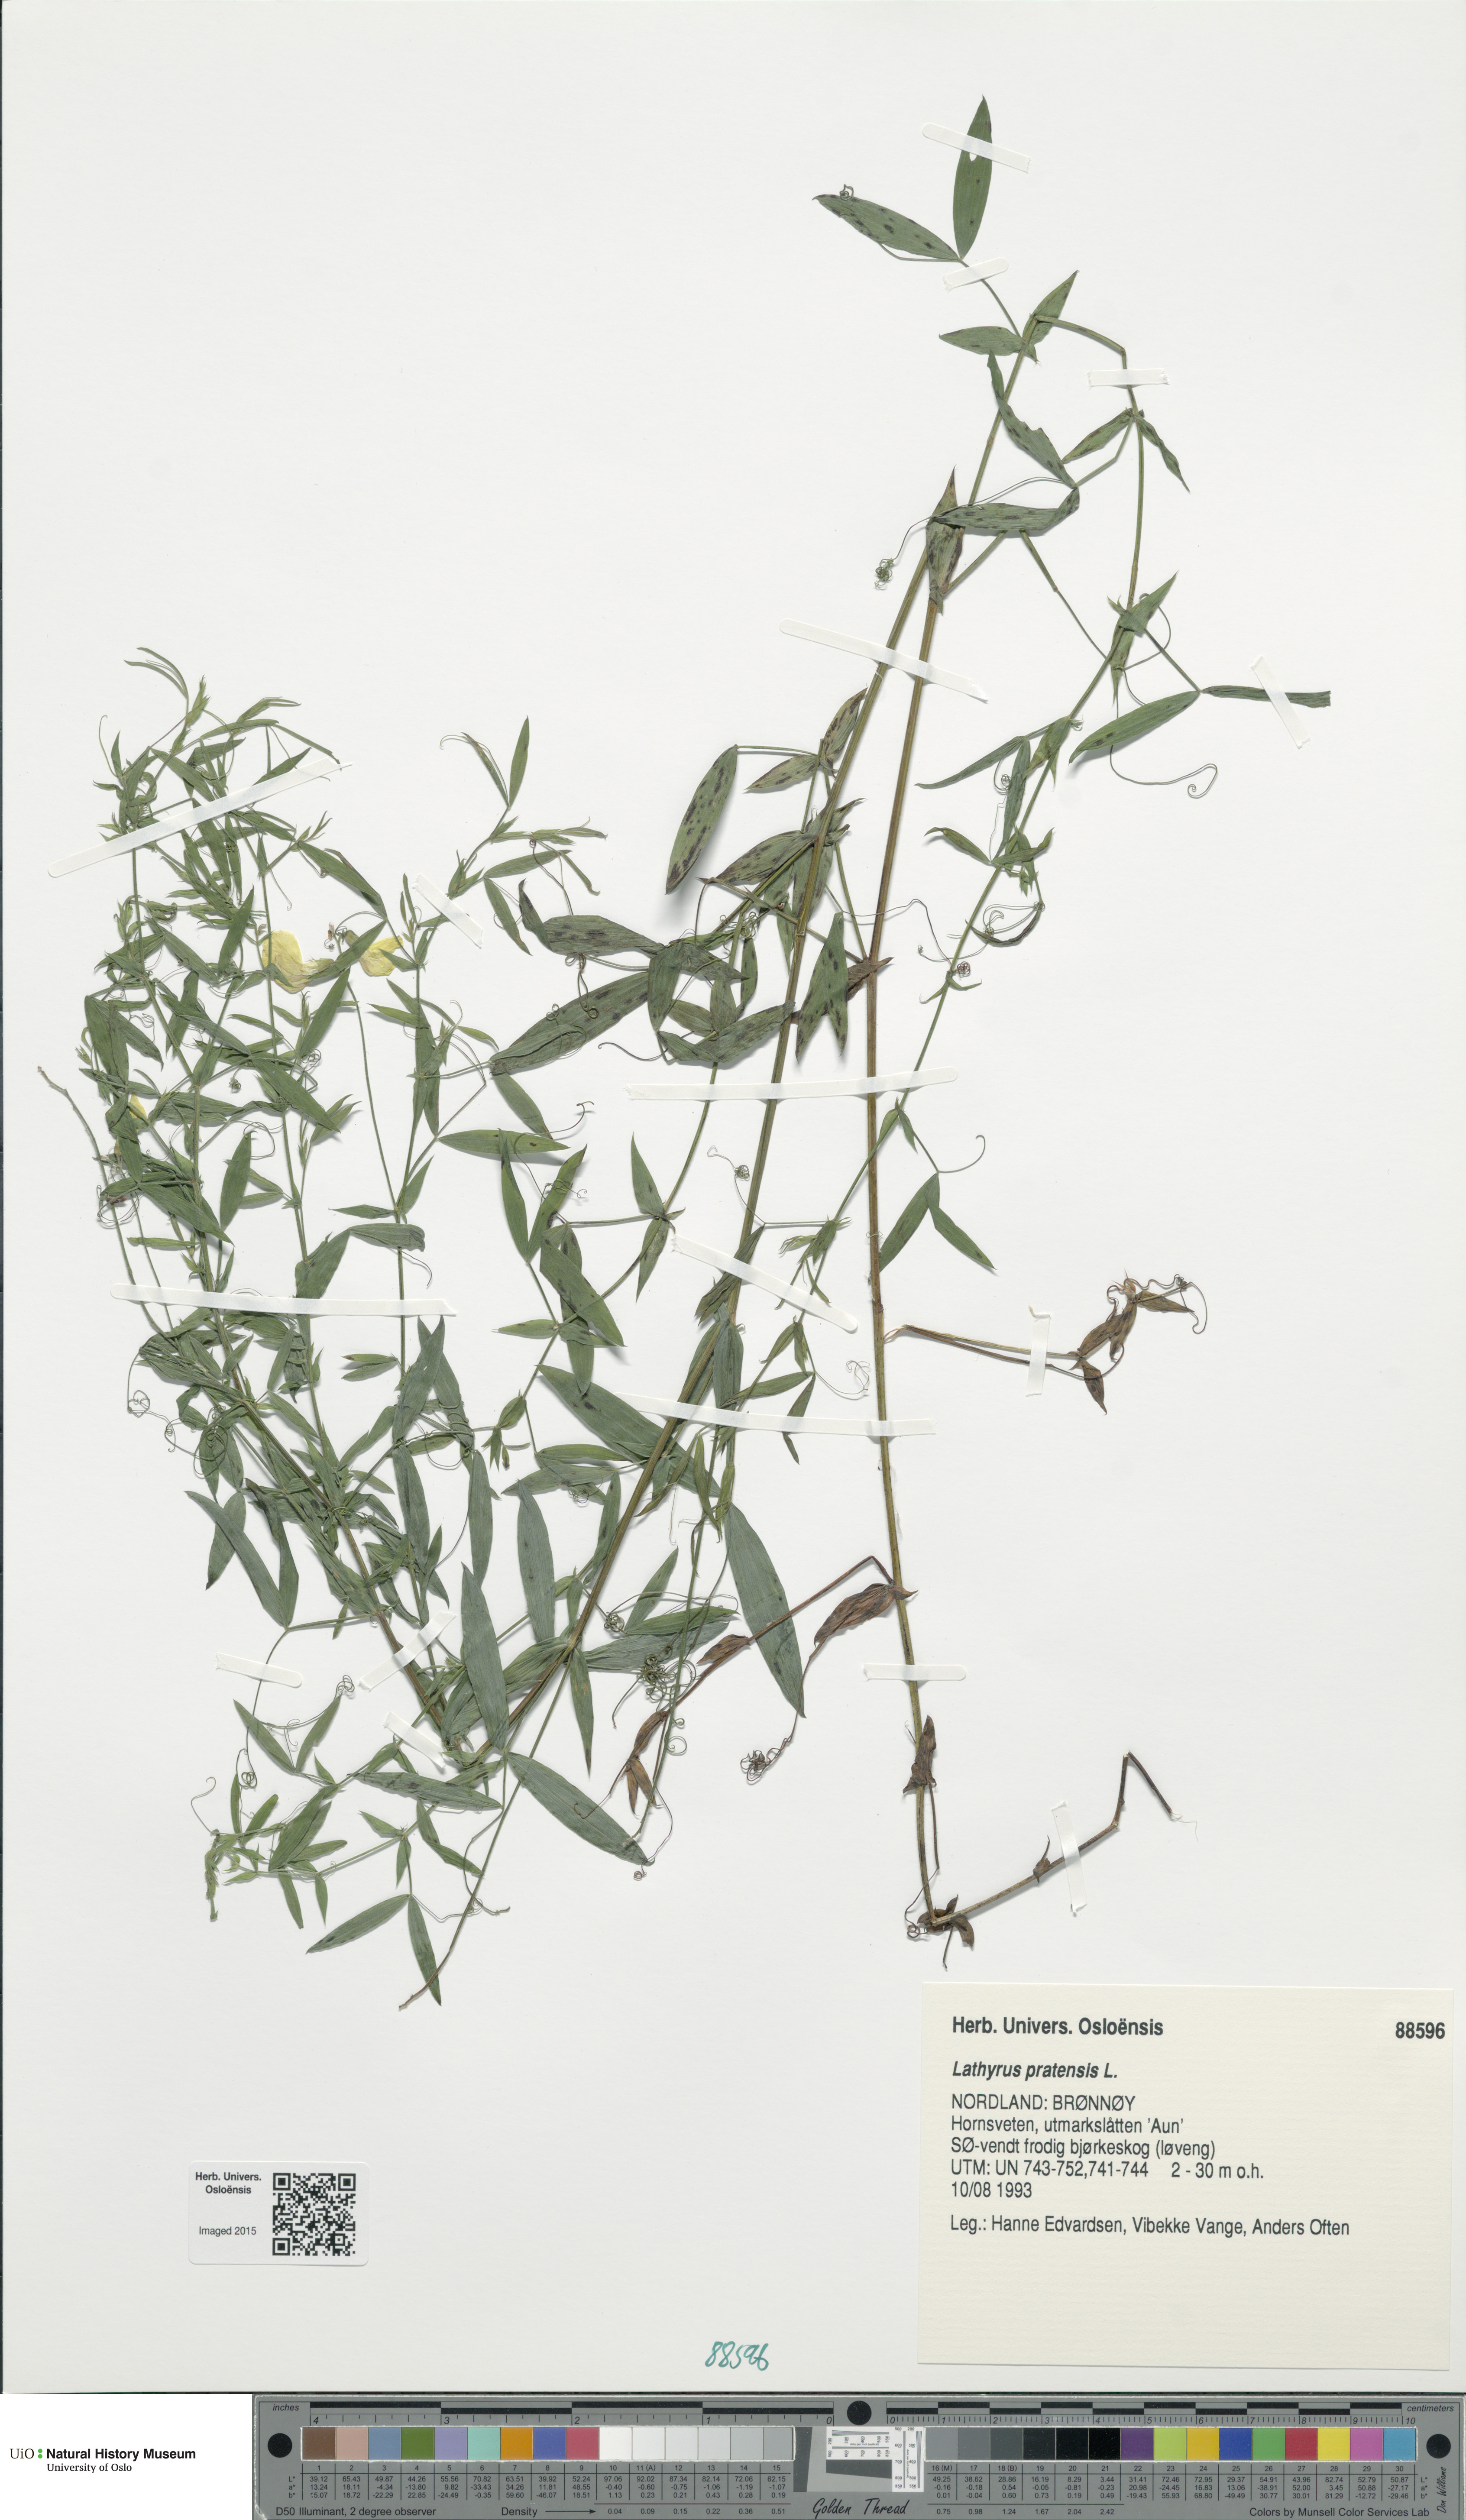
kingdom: Plantae
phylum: Tracheophyta
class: Magnoliopsida
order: Fabales
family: Fabaceae
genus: Lathyrus
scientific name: Lathyrus pratensis
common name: Meadow vetchling
